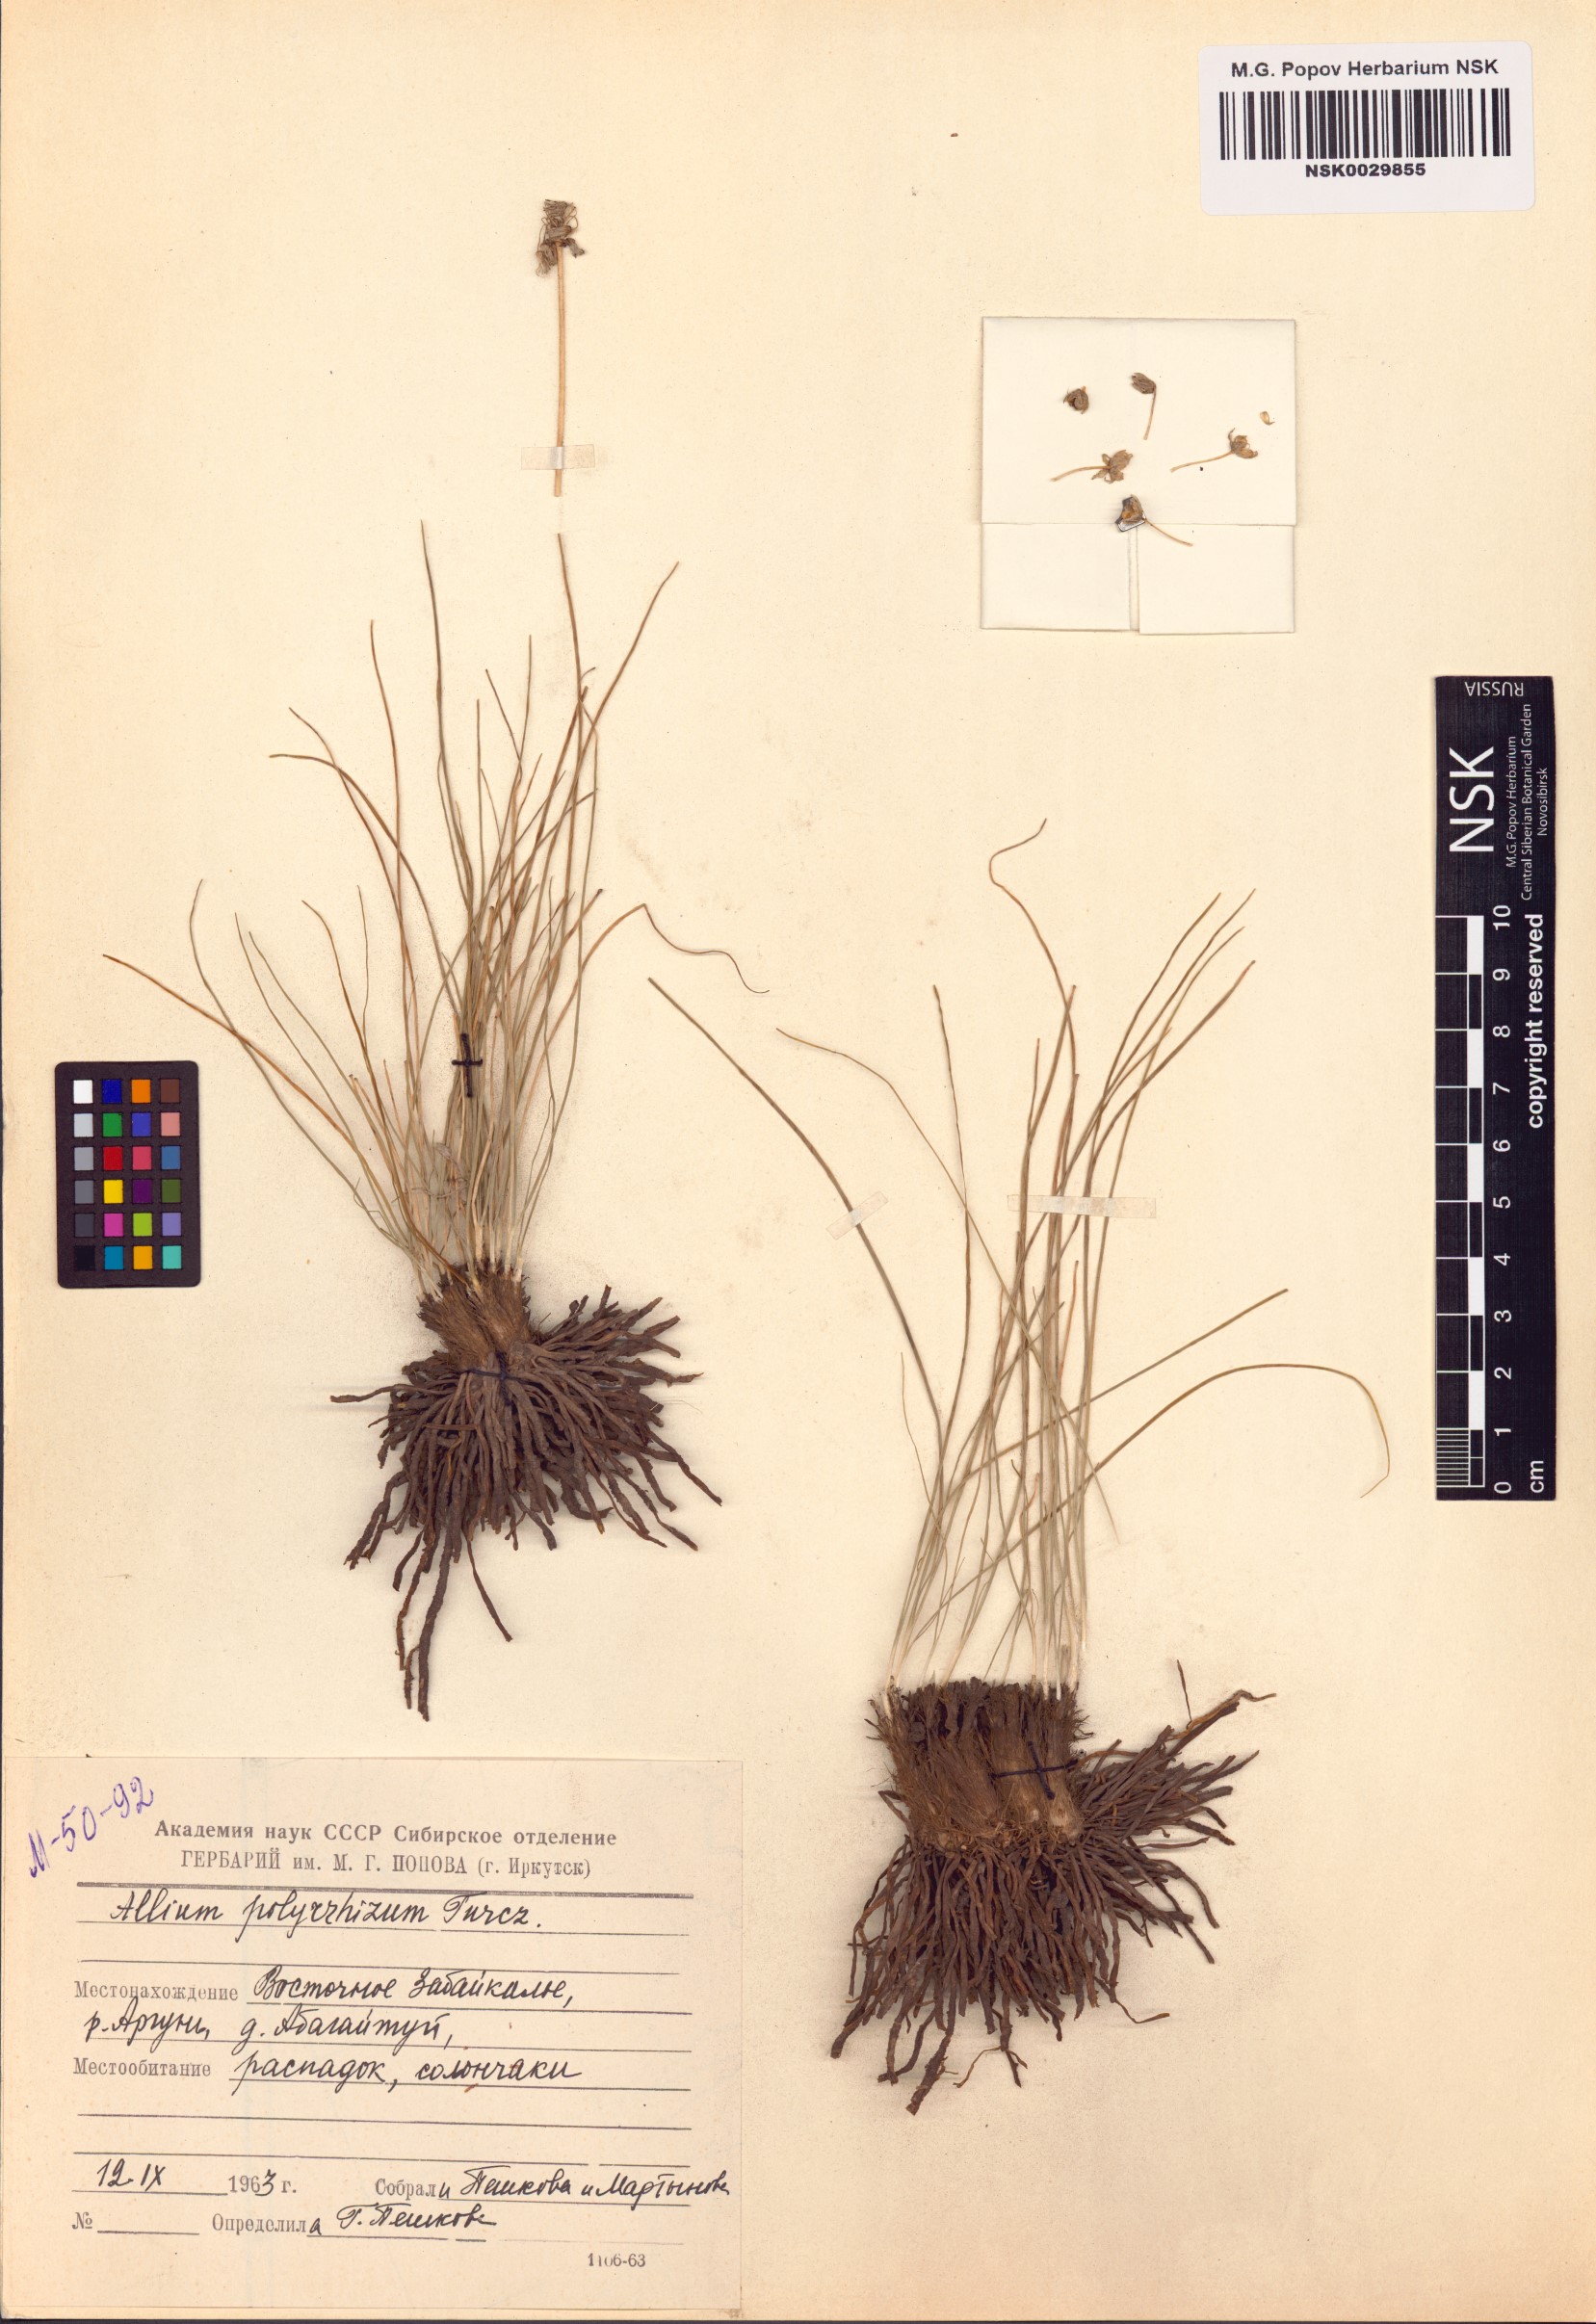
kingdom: Plantae
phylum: Tracheophyta
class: Liliopsida
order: Asparagales
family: Amaryllidaceae
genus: Allium
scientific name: Allium polyrhizum
